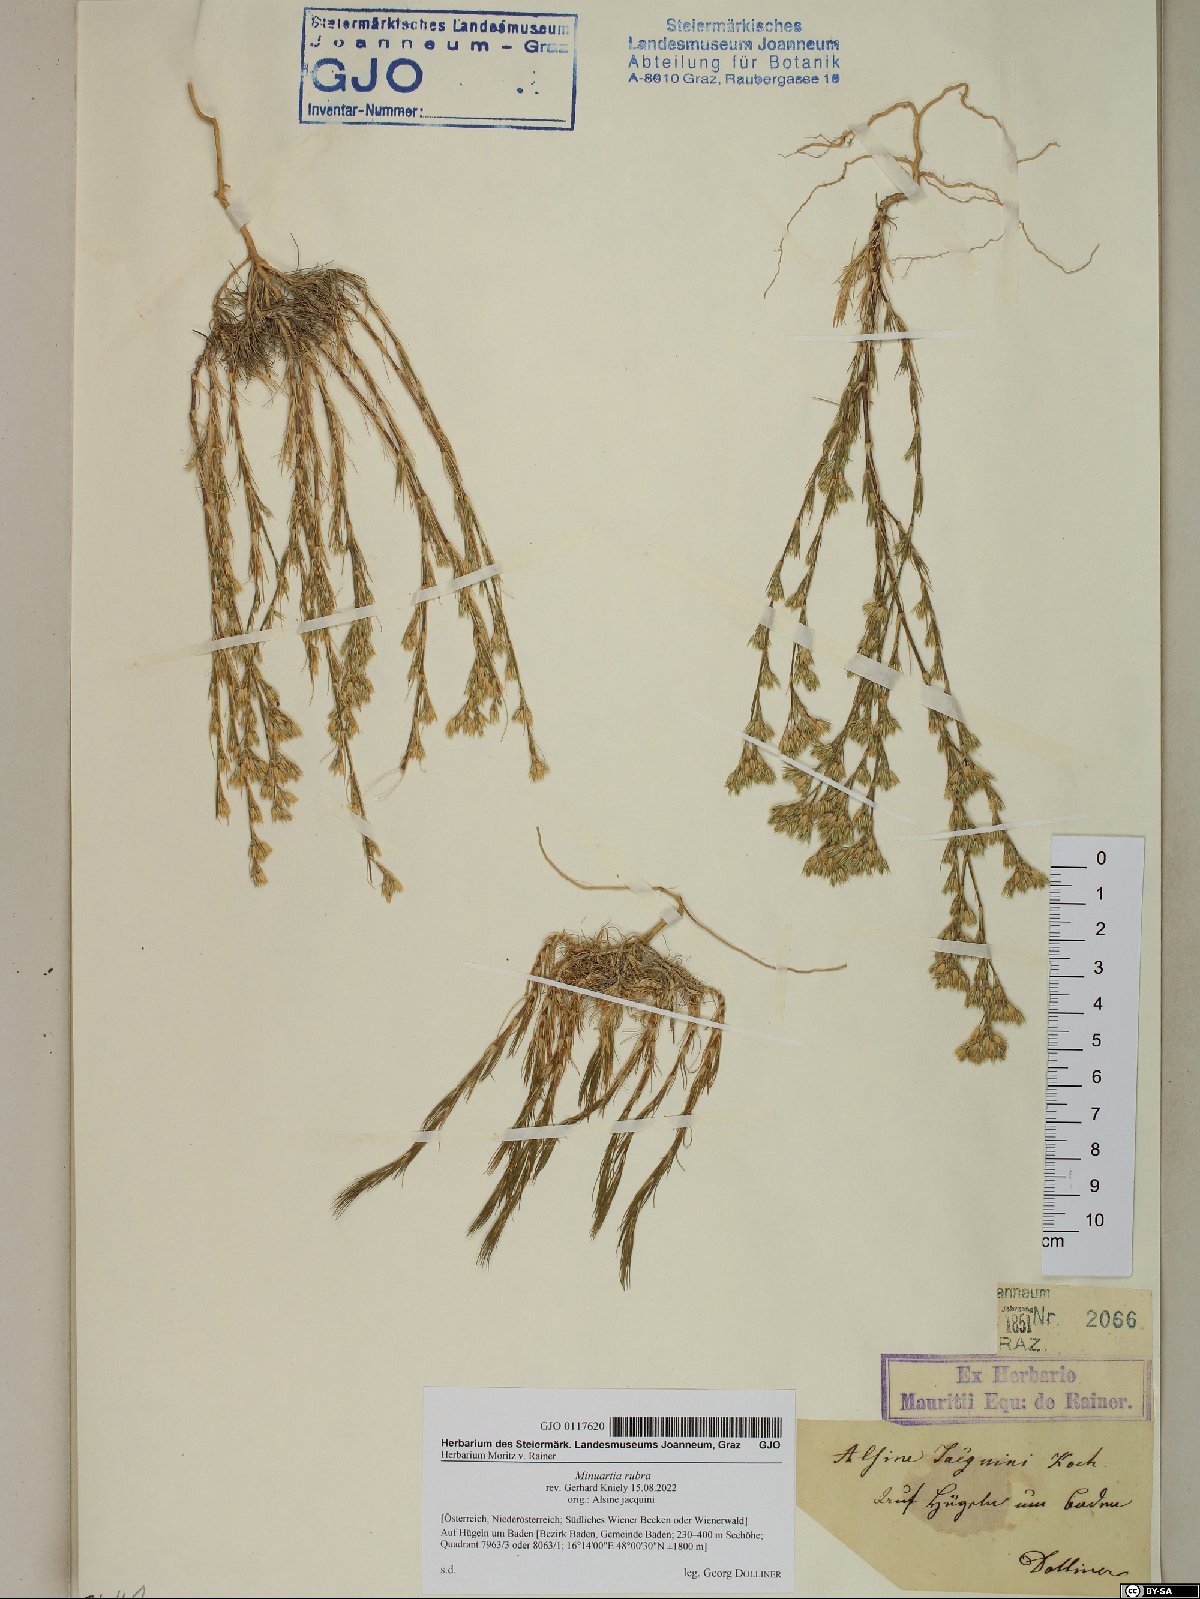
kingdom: Plantae
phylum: Tracheophyta
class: Magnoliopsida
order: Caryophyllales
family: Caryophyllaceae
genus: Minuartia
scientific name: Minuartia mucronata
